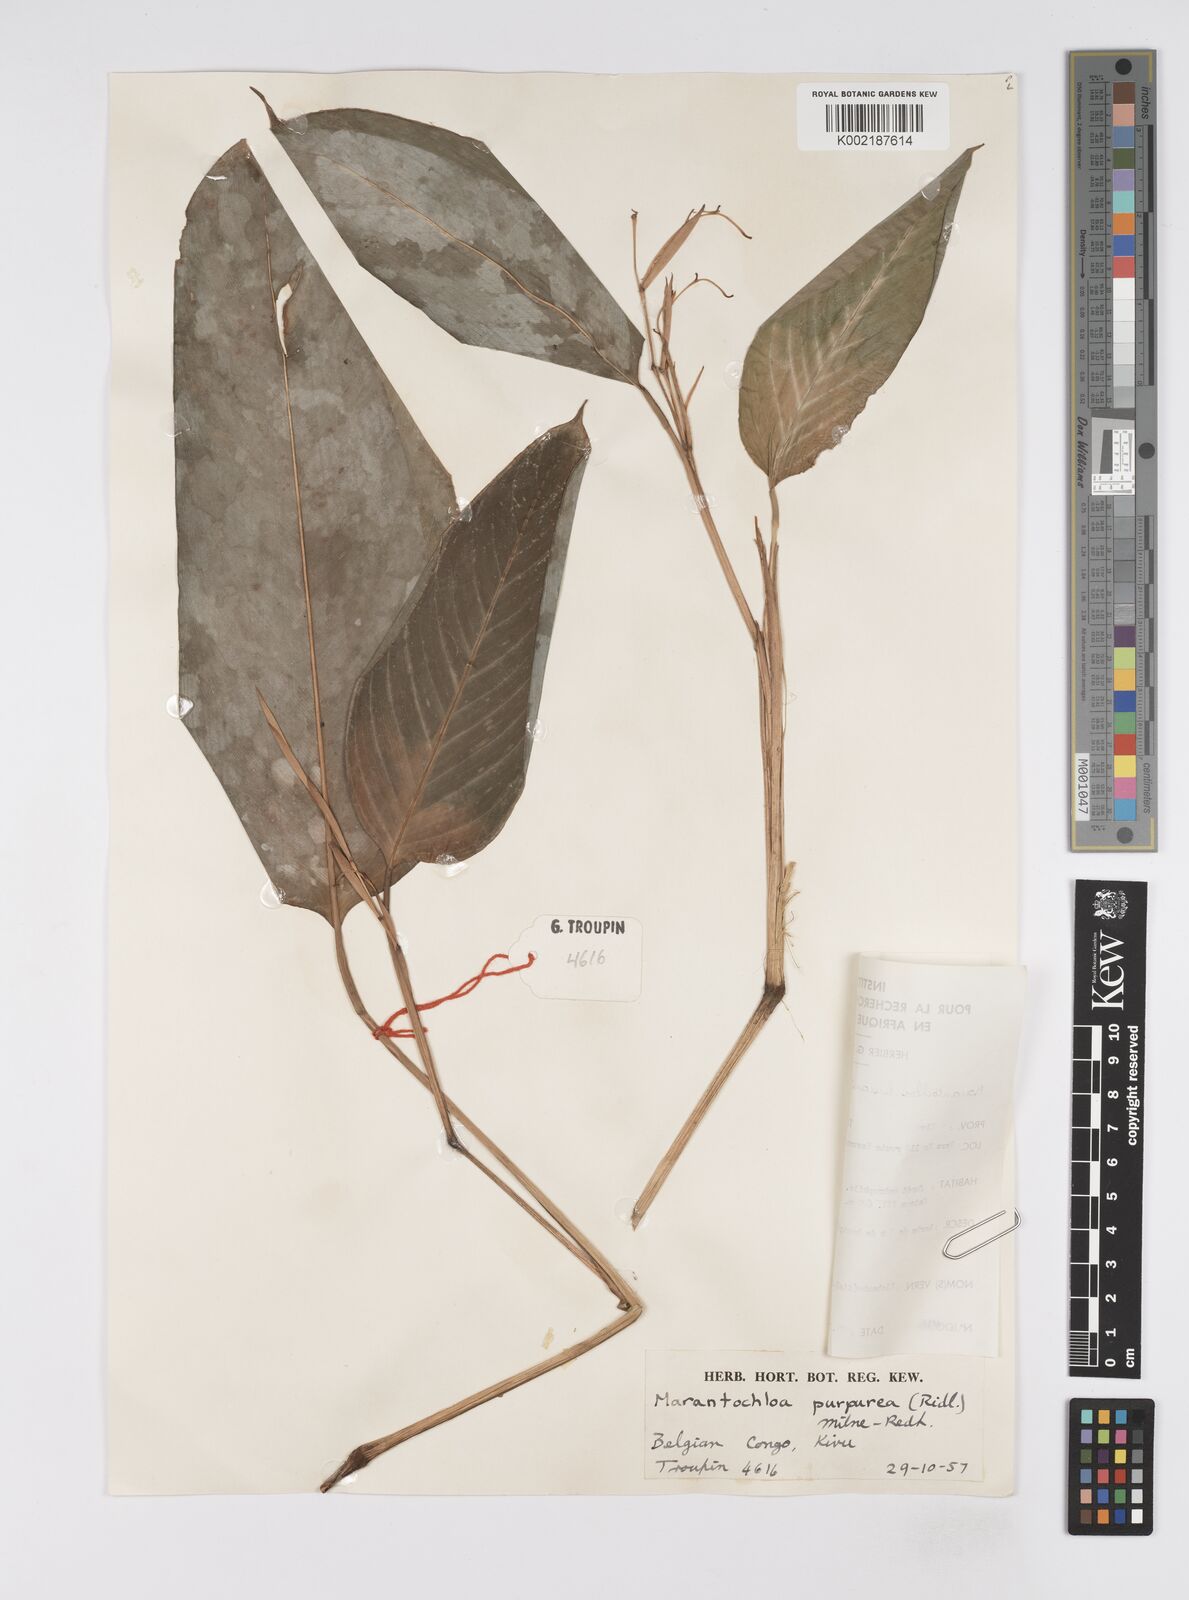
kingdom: Plantae
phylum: Tracheophyta
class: Liliopsida
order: Zingiberales
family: Marantaceae
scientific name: Marantaceae
